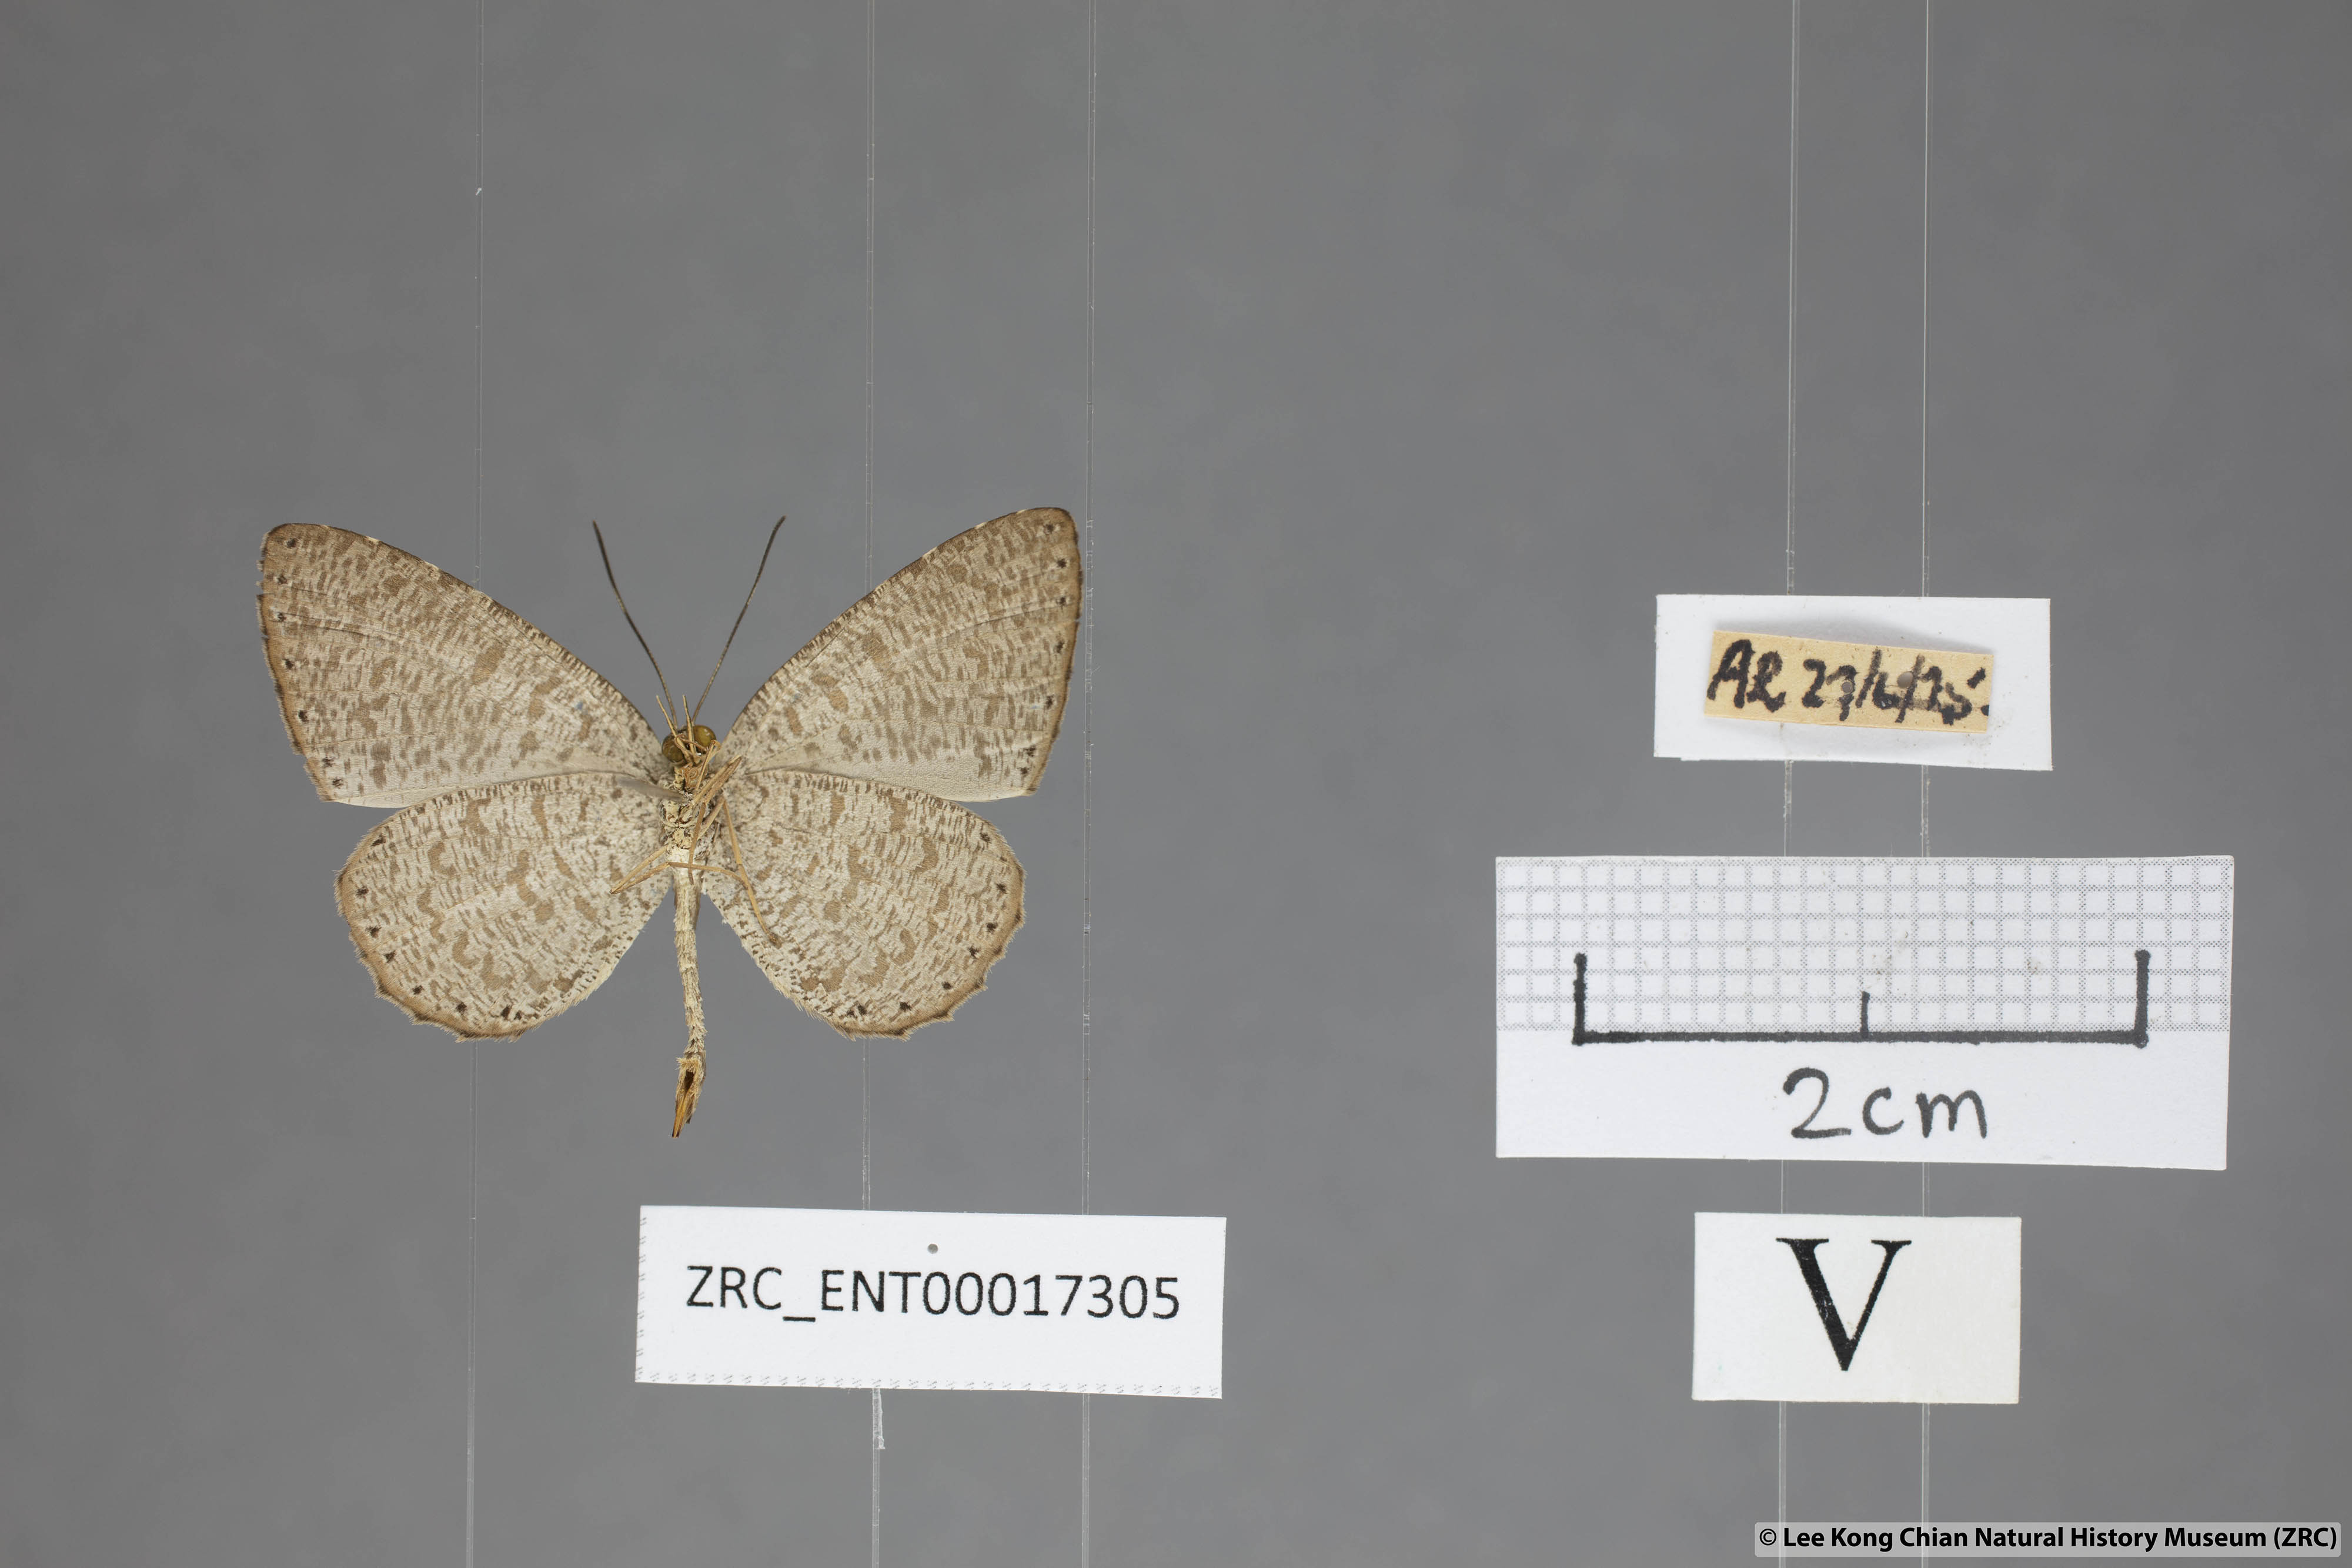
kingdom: Animalia
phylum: Arthropoda
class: Insecta
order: Lepidoptera
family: Lycaenidae
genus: Allotinus
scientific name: Allotinus strigatus
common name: Small malayan darkie
